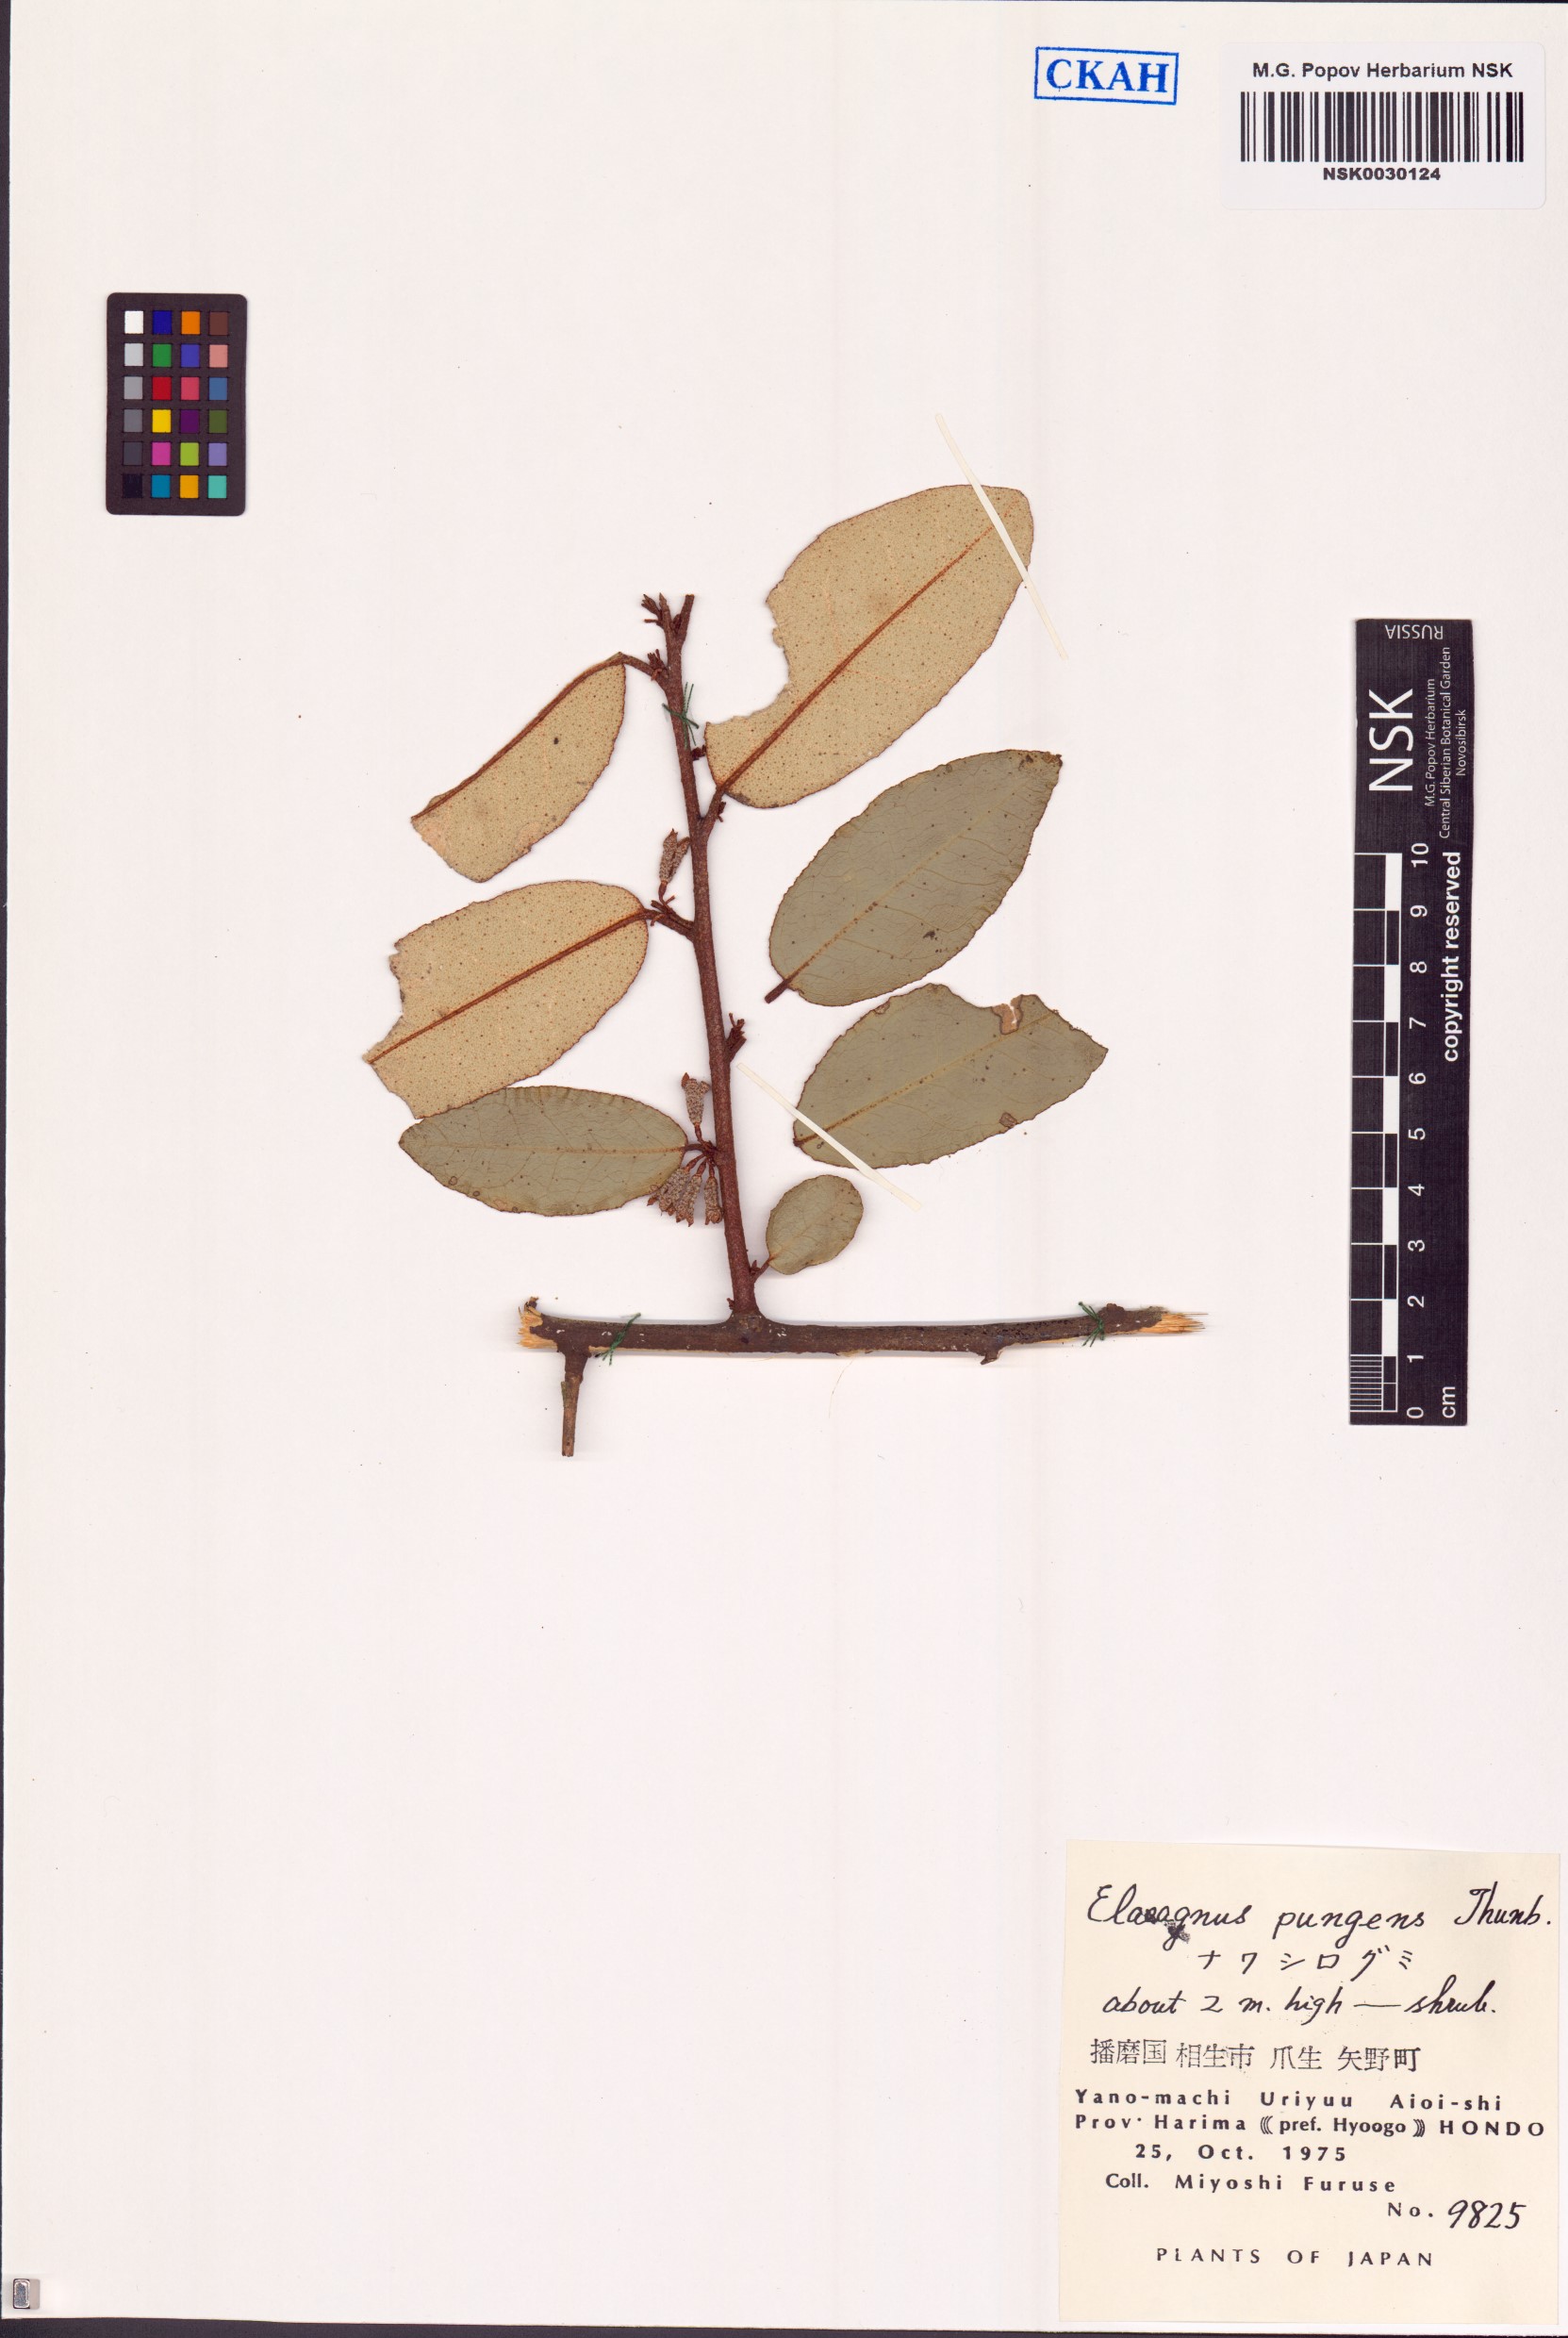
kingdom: Plantae
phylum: Tracheophyta
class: Magnoliopsida
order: Rosales
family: Elaeagnaceae
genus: Elaeagnus
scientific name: Elaeagnus pungens
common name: Spiny oleaster
